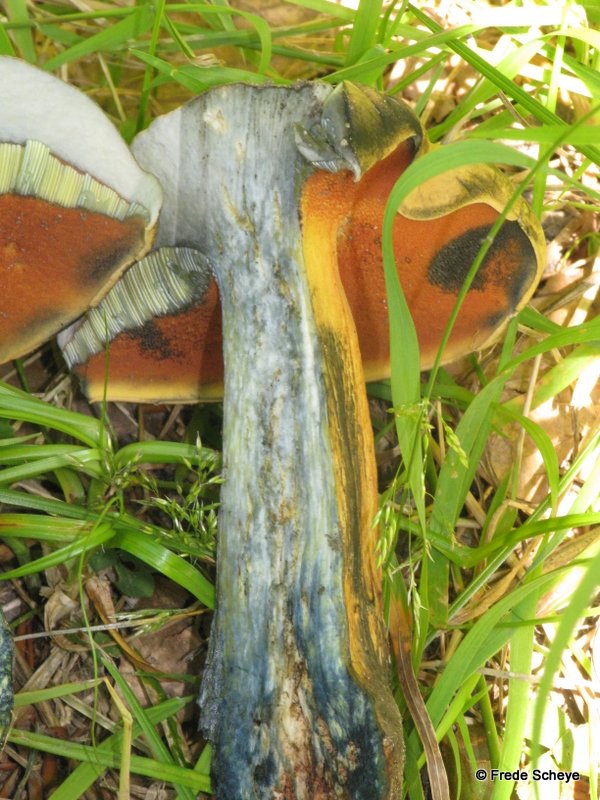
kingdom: Fungi
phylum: Basidiomycota
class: Agaricomycetes
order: Boletales
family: Boletaceae
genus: Suillellus
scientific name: Suillellus luridus
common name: netstokket indigorørhat
